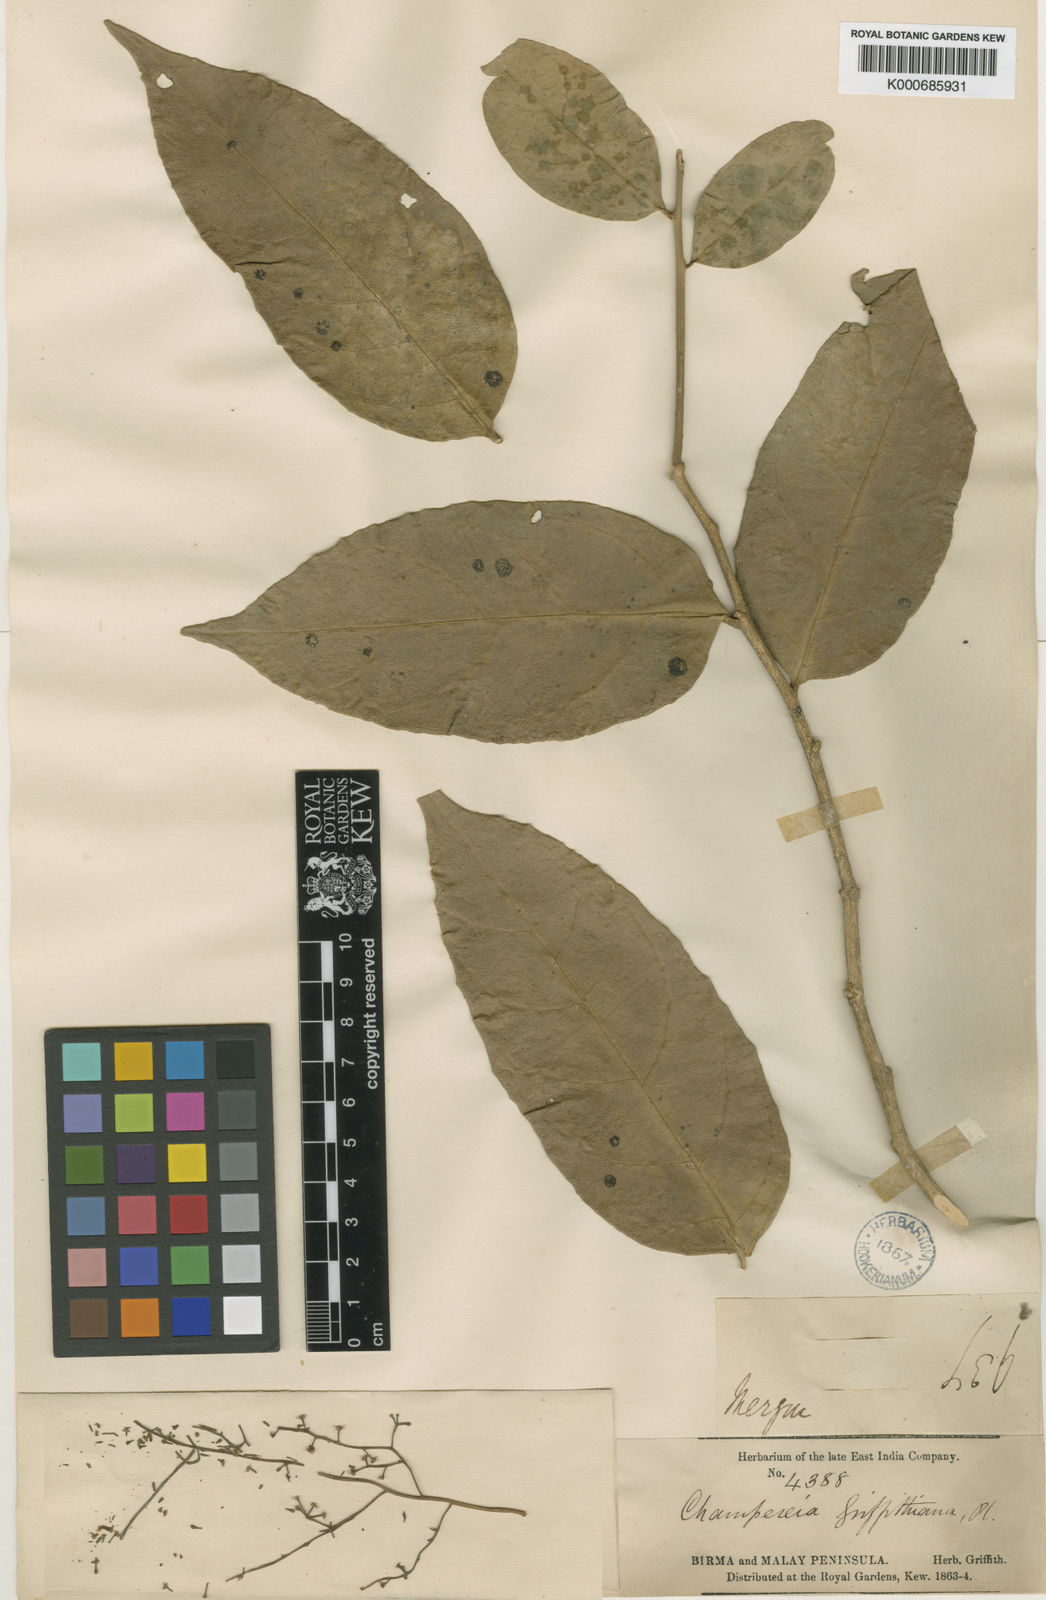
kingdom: Plantae
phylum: Tracheophyta
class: Magnoliopsida
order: Cardiopteridales
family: Cardiopteridaceae
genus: Gonocaryum
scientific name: Gonocaryum lobbianum
